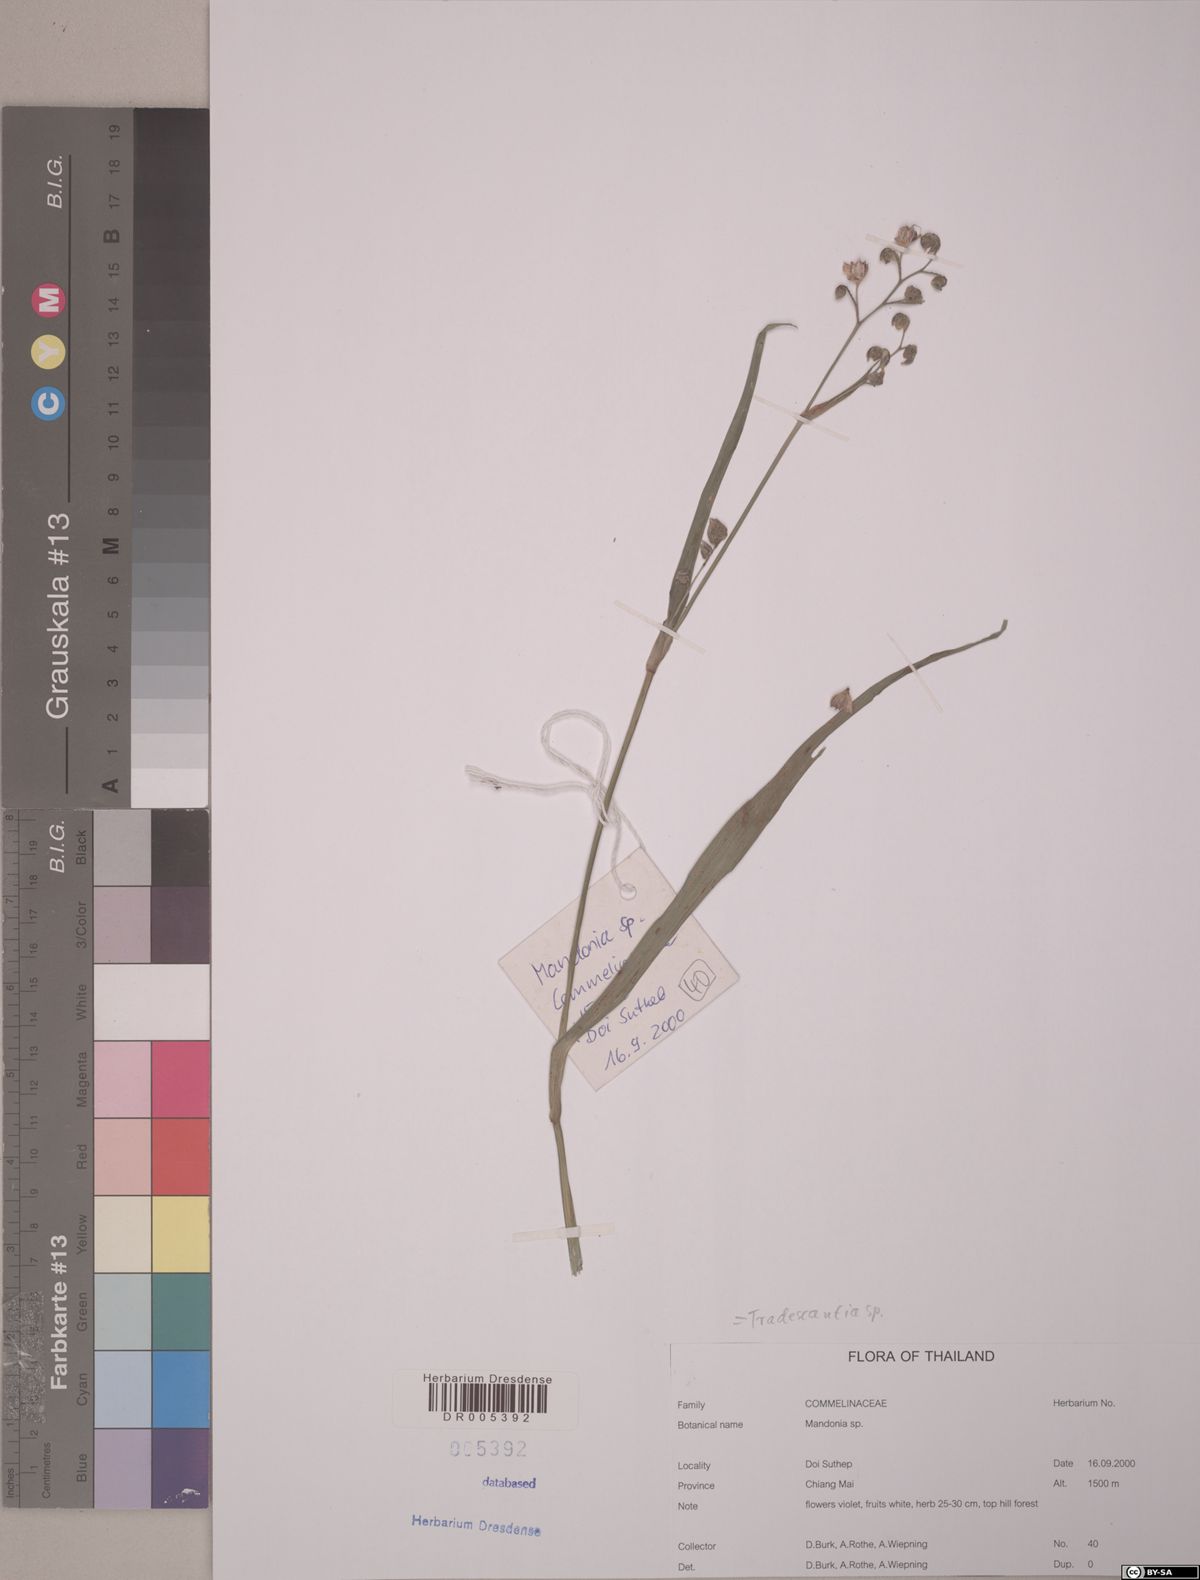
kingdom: Plantae
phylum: Tracheophyta
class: Liliopsida
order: Commelinales
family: Commelinaceae
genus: Tradescantia
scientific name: Tradescantia
